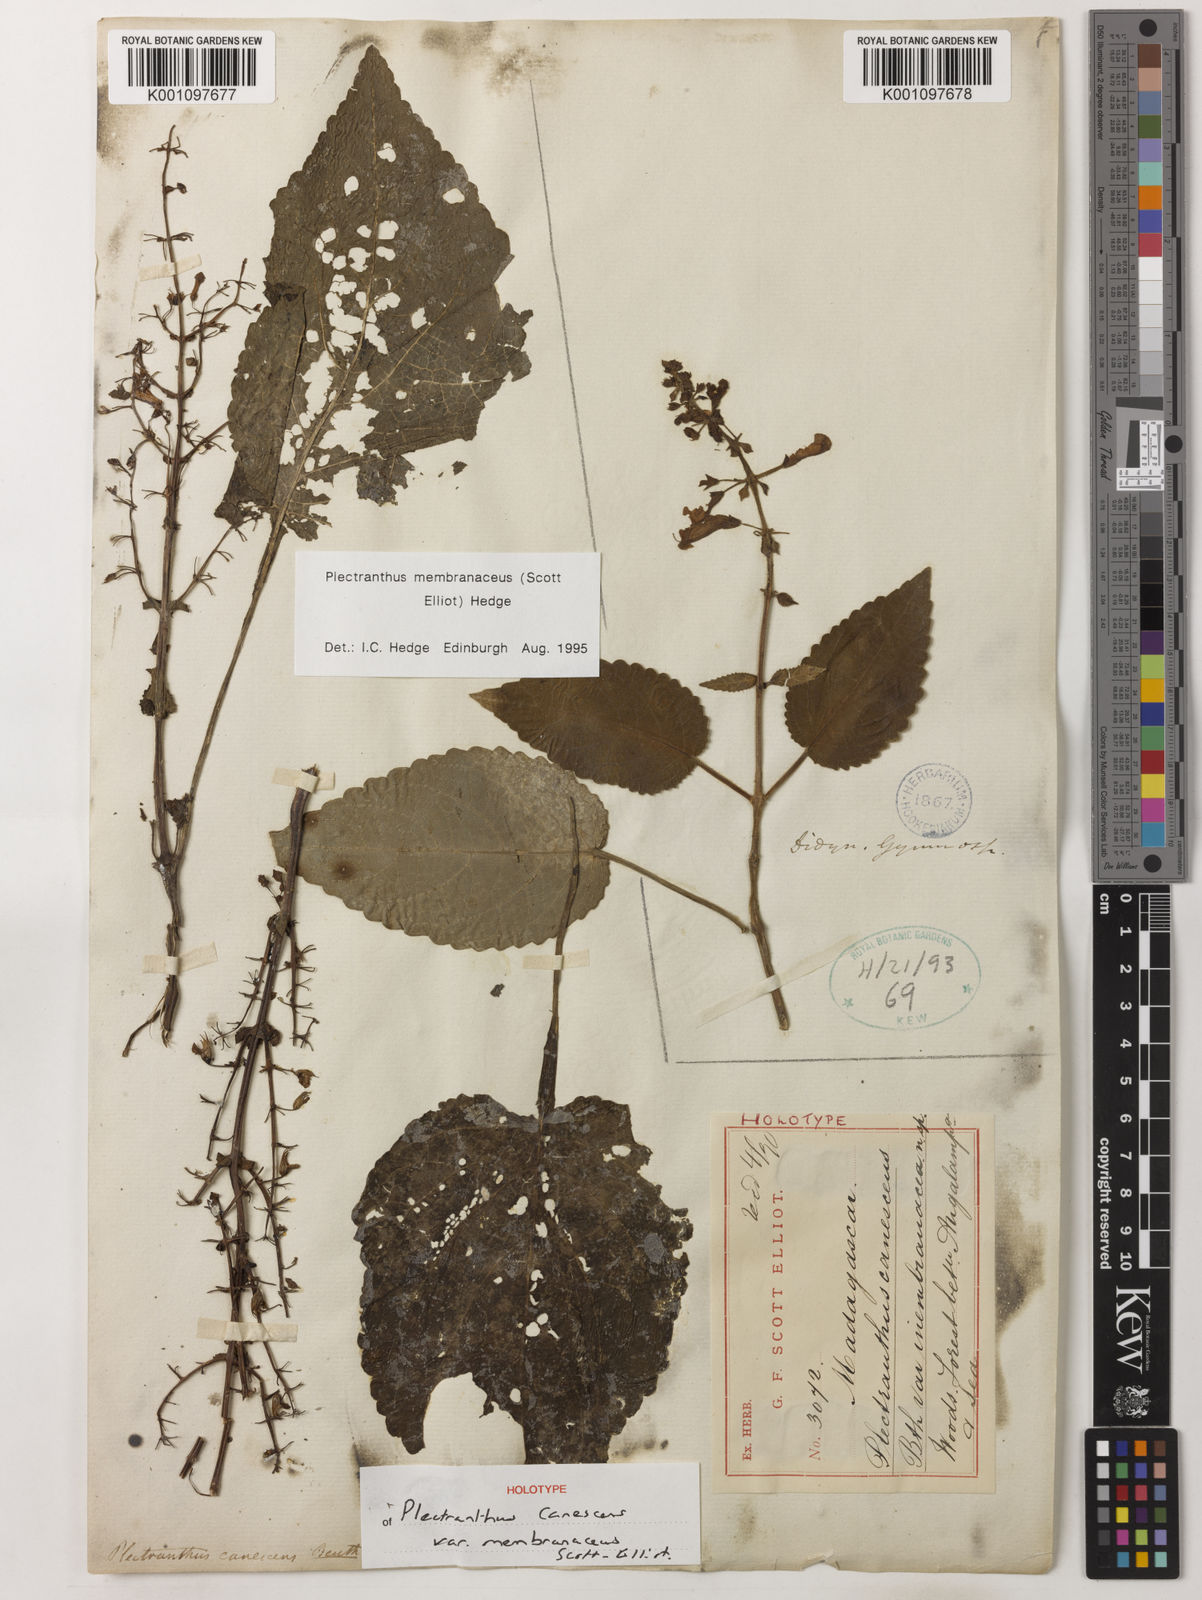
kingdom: Plantae
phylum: Tracheophyta
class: Magnoliopsida
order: Lamiales
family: Lamiaceae
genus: Plectranthus
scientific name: Plectranthus membranaceus
